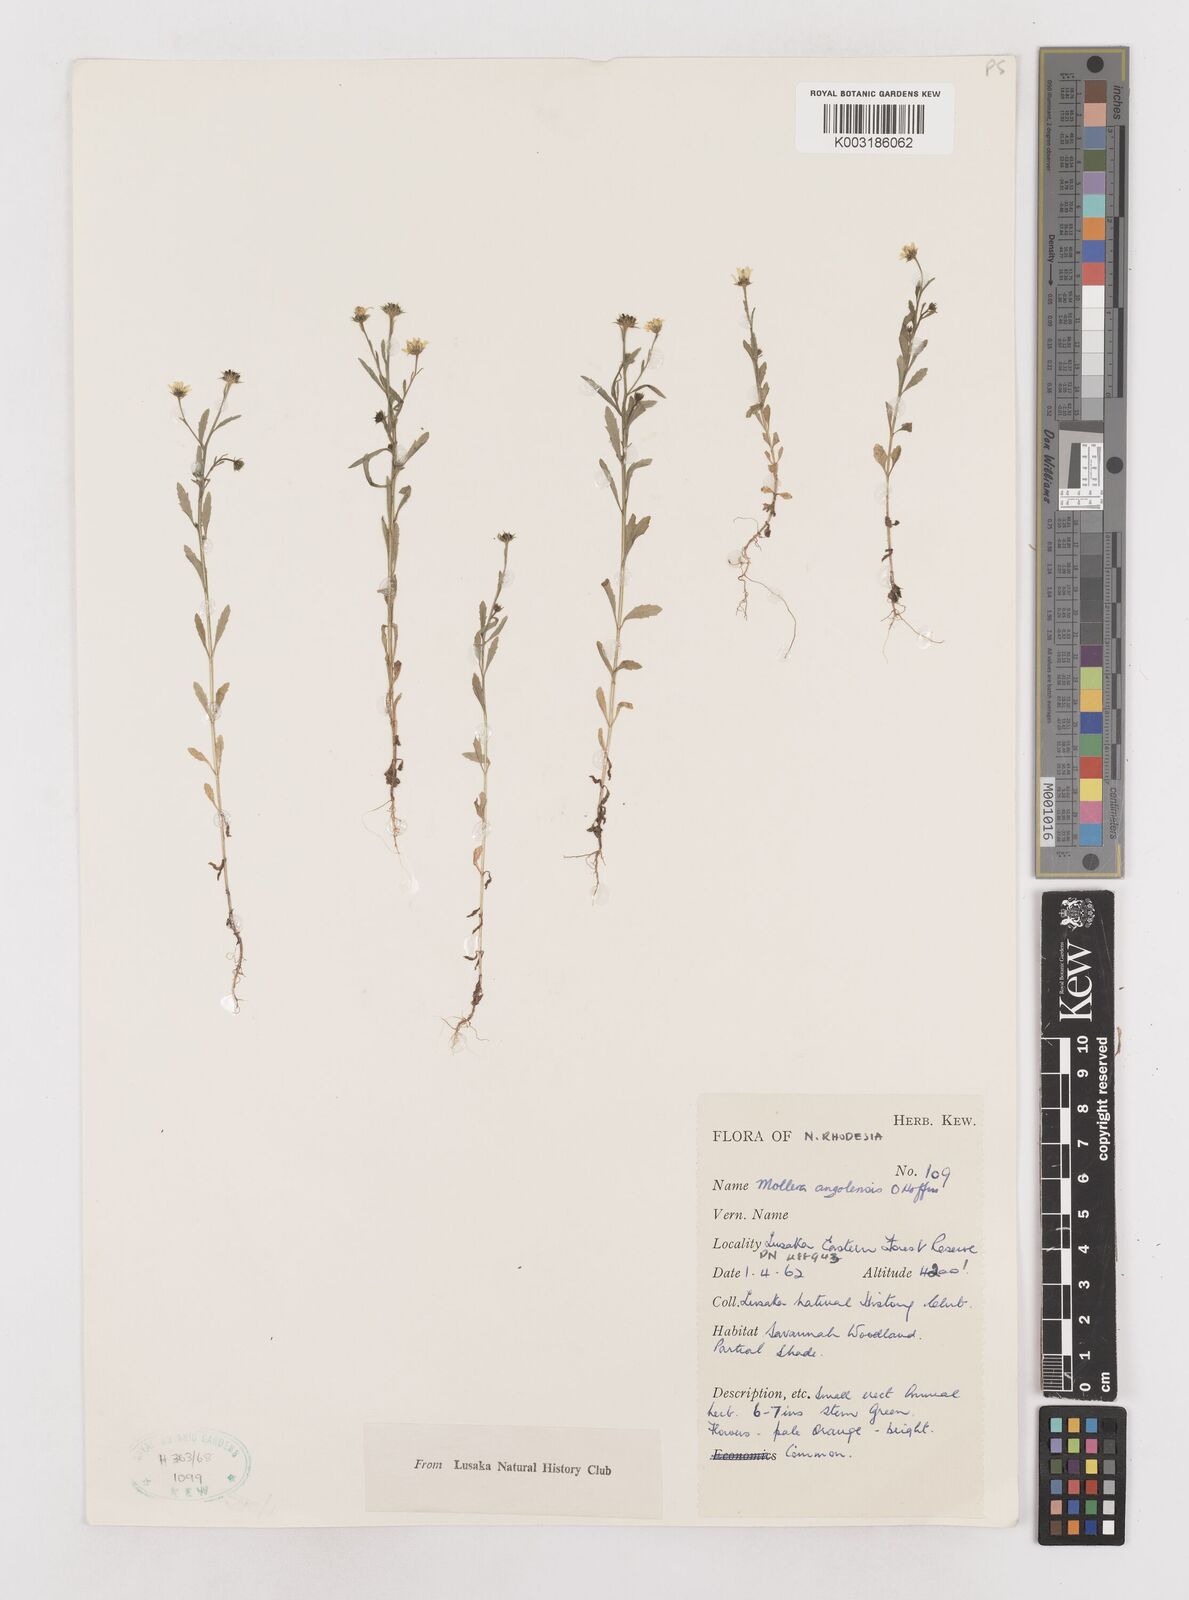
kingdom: Plantae
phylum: Tracheophyta
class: Magnoliopsida
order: Asterales
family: Asteraceae
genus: Calostephane
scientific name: Calostephane angolensis
